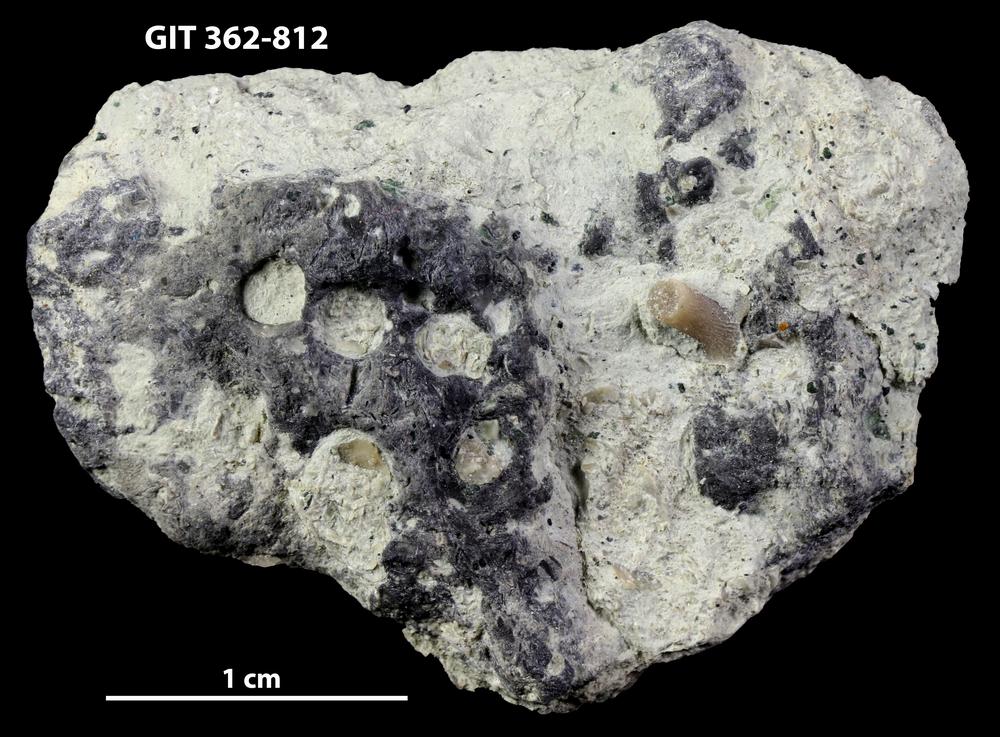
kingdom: Animalia
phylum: Sipuncula
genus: Trypanites
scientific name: Trypanites
